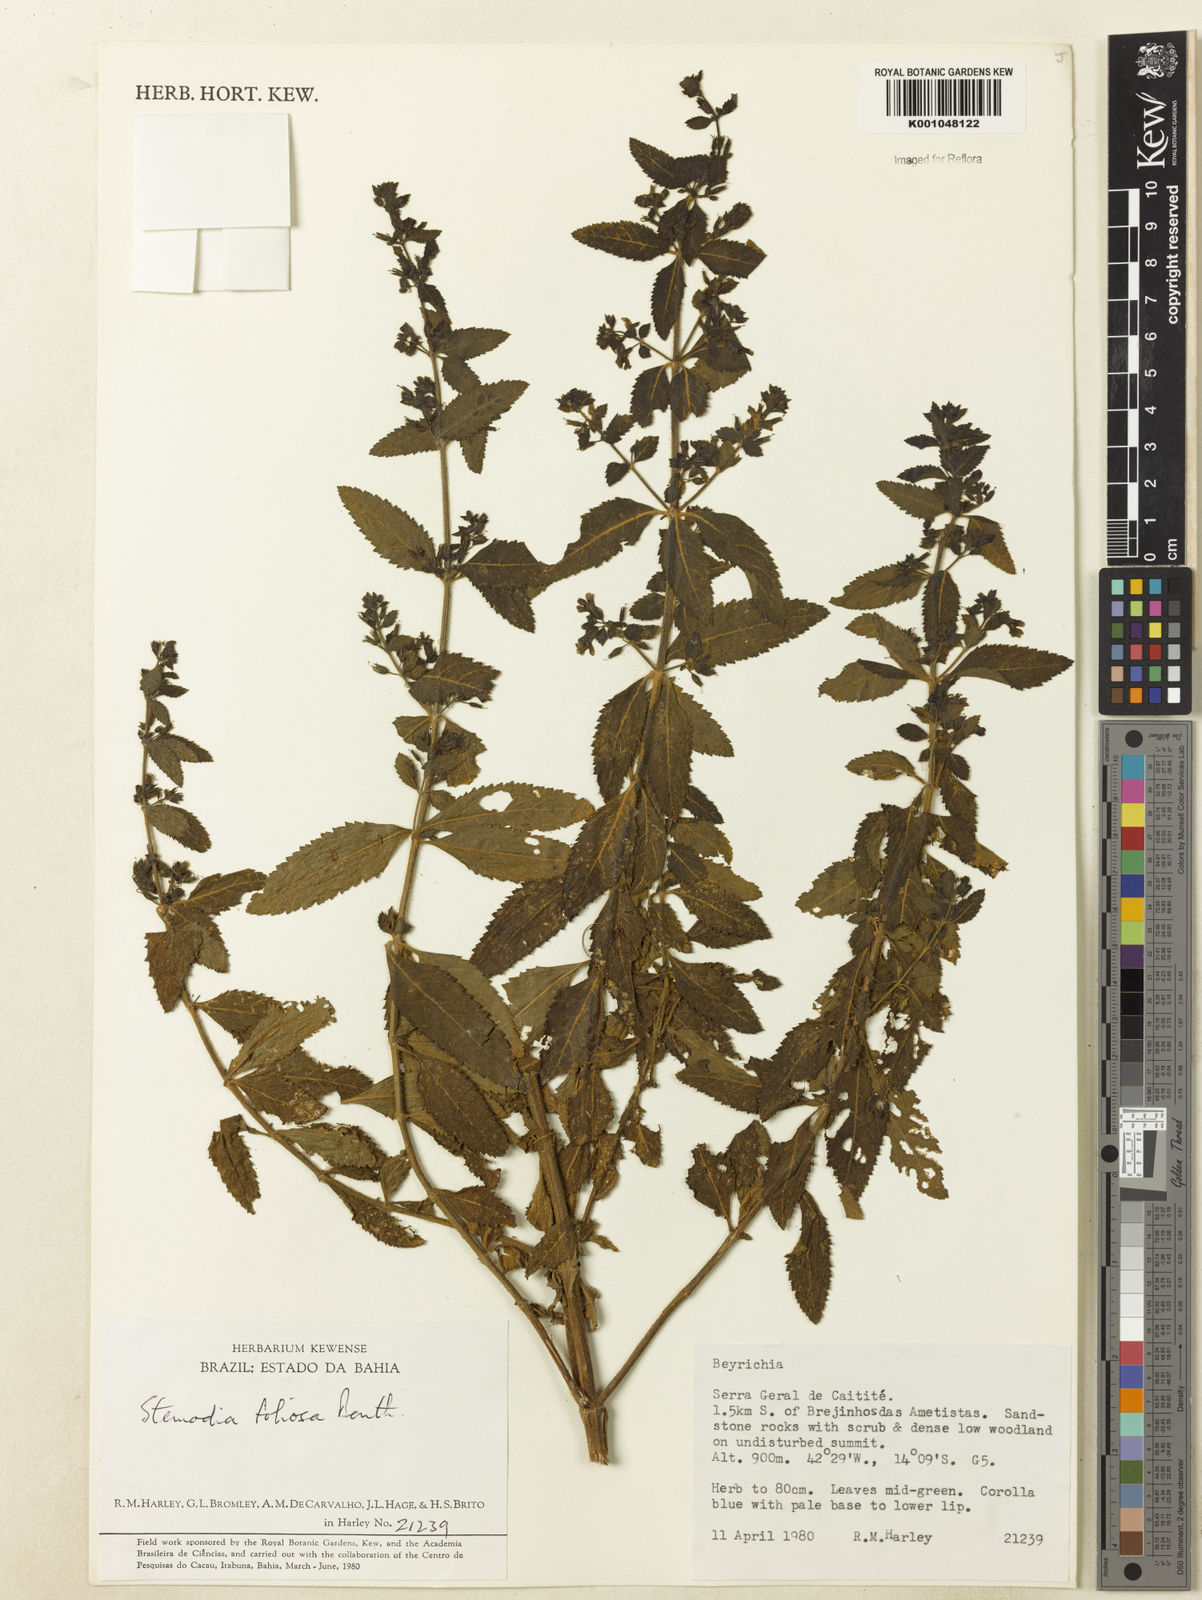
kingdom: Plantae
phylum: Tracheophyta
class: Magnoliopsida
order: Lamiales
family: Plantaginaceae
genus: Stemodia
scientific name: Stemodia foliosa
